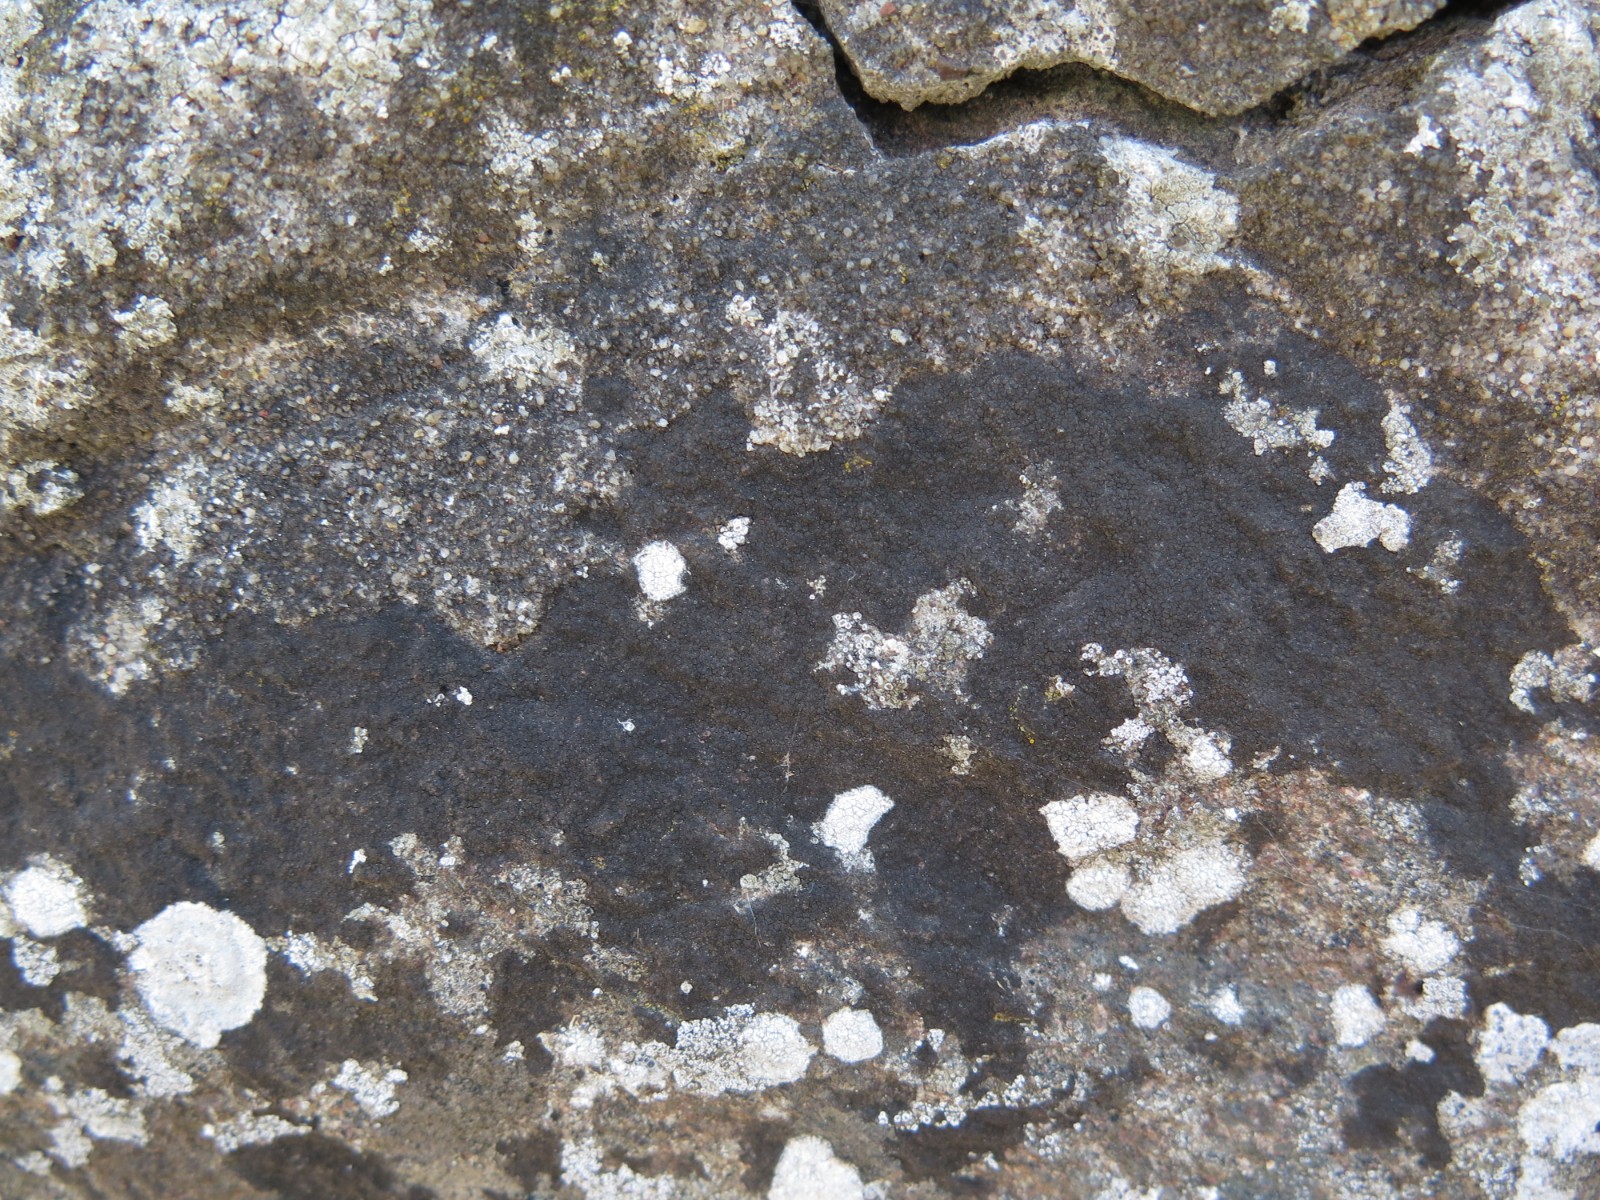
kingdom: Fungi
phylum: Ascomycota
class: Eurotiomycetes
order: Verrucariales
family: Verrucariaceae
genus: Verrucaria
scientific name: Verrucaria nigrescens
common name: sortbrun vortelav
